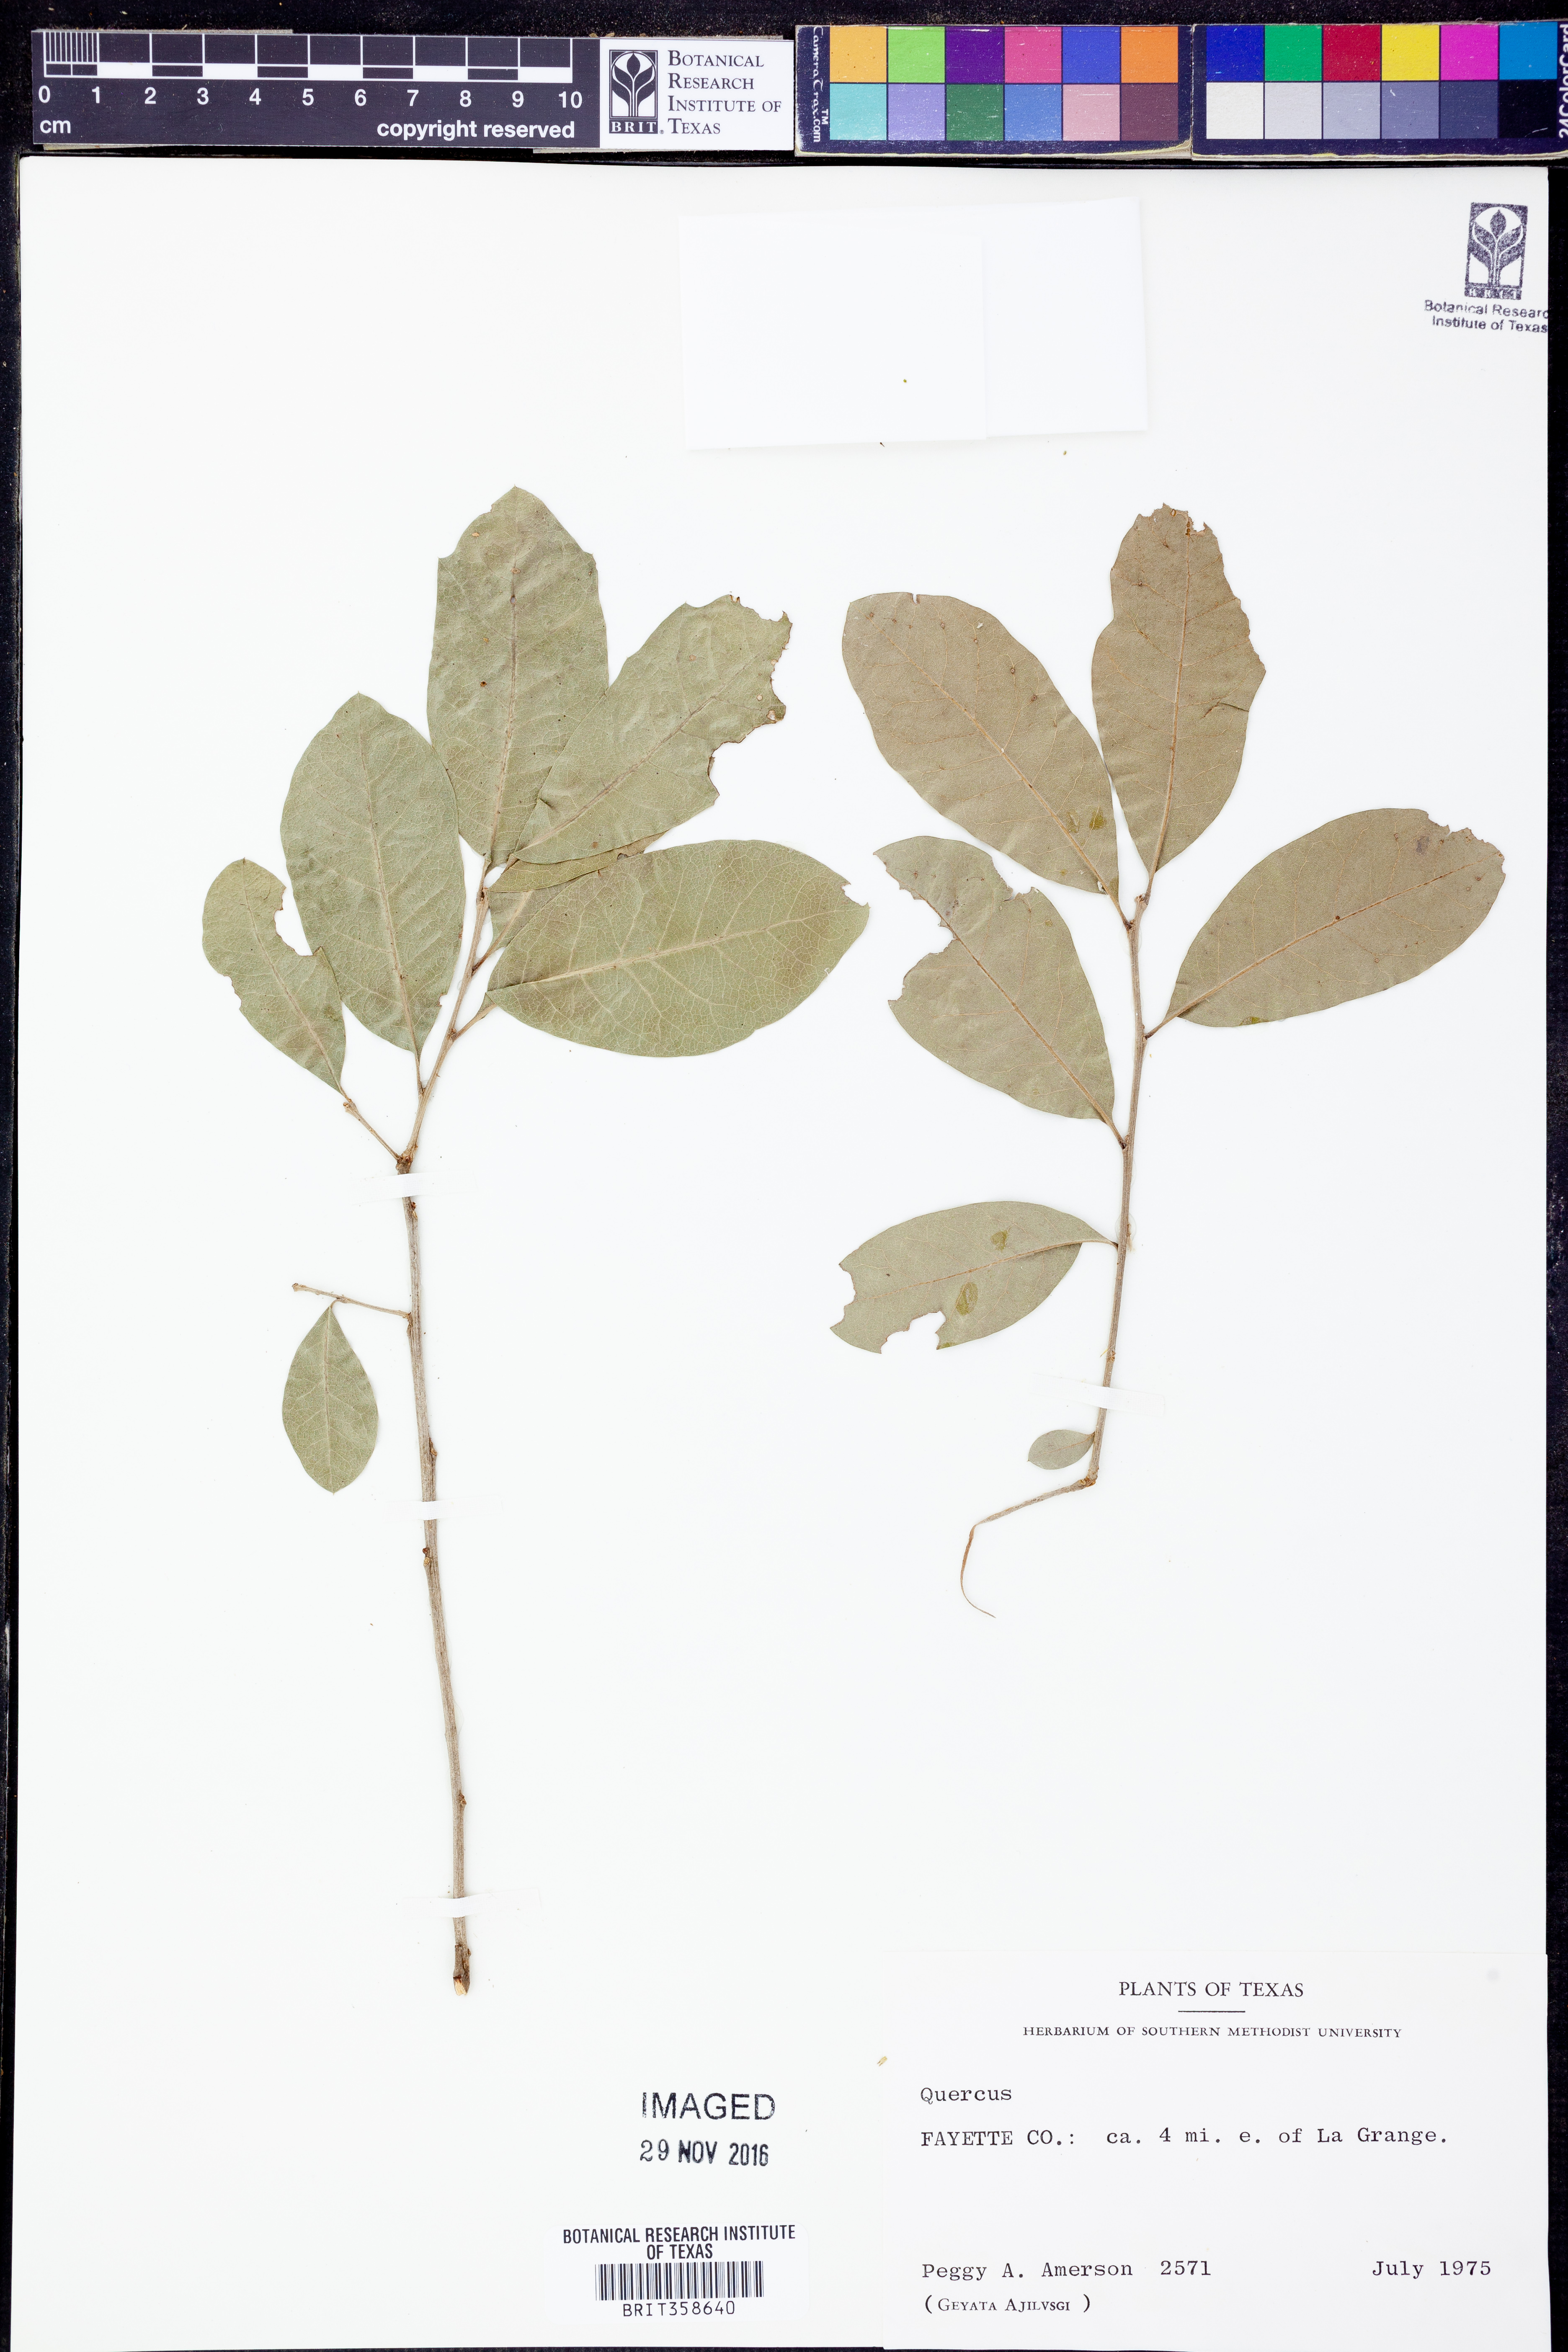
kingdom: Plantae
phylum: Tracheophyta
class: Magnoliopsida
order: Fagales
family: Fagaceae
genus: Quercus
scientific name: Quercus
